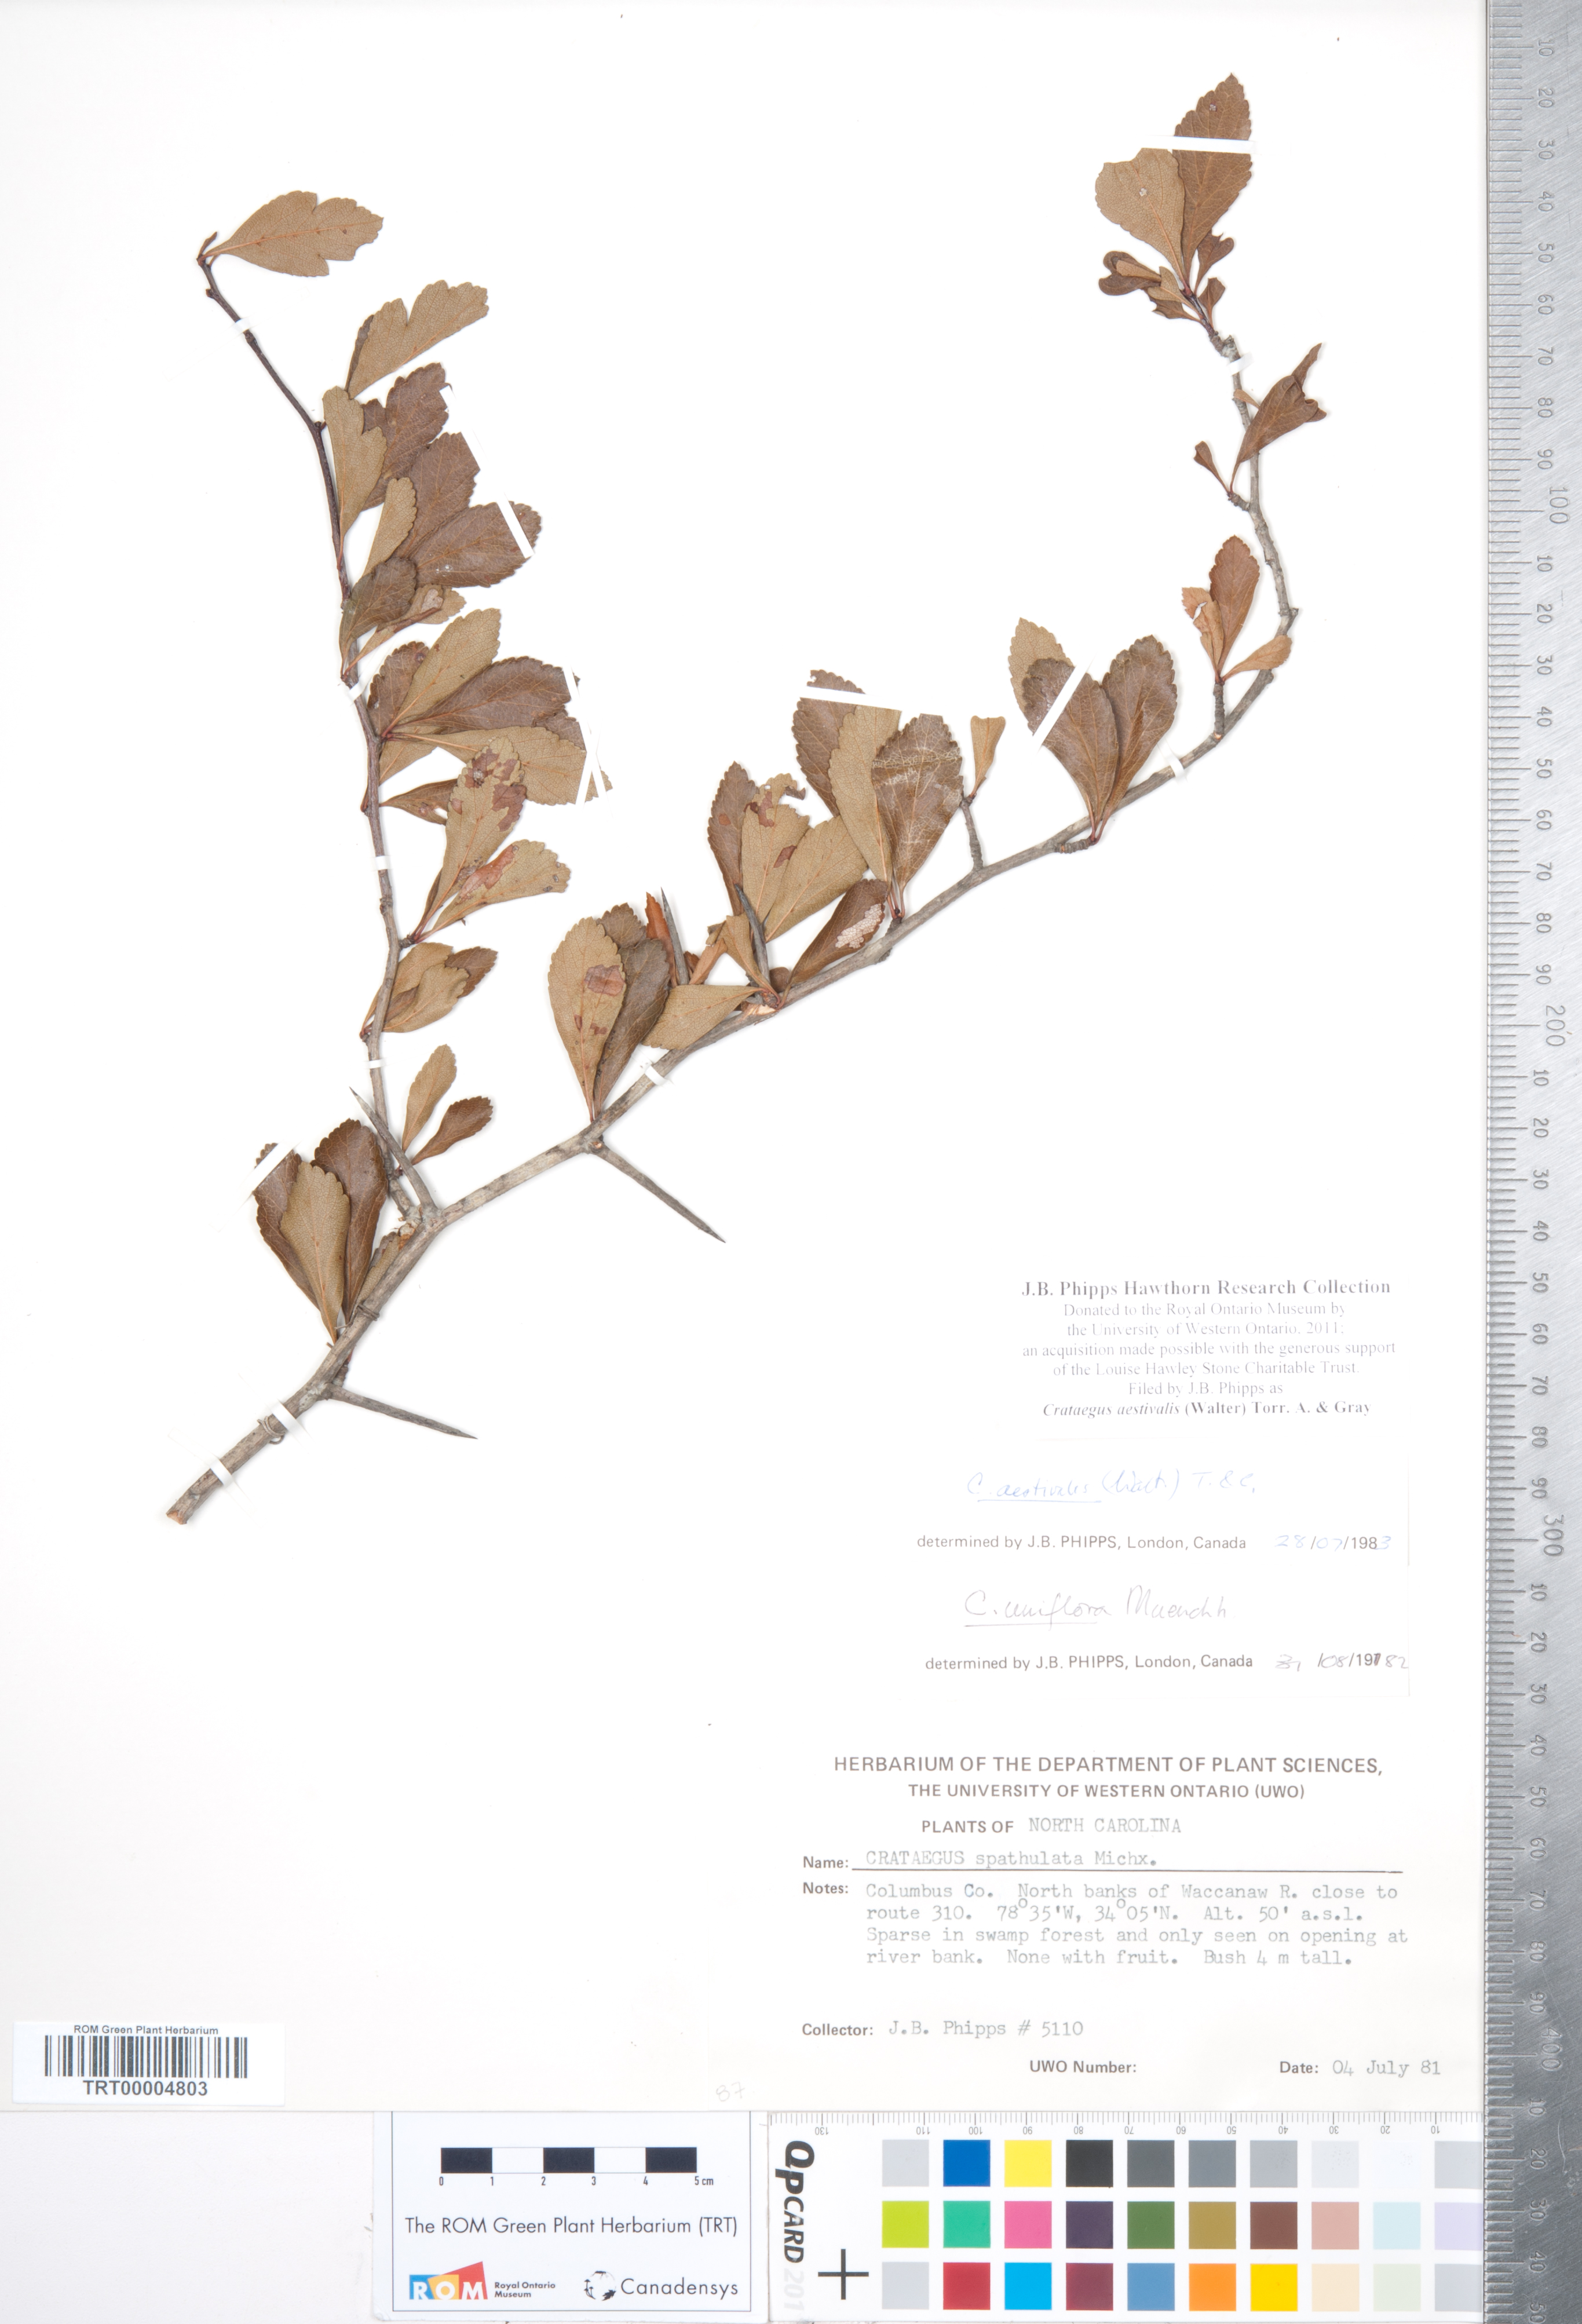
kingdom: Plantae
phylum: Tracheophyta
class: Magnoliopsida
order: Rosales
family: Rosaceae
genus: Crataegus
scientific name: Crataegus aestivalis
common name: Mayhaw
